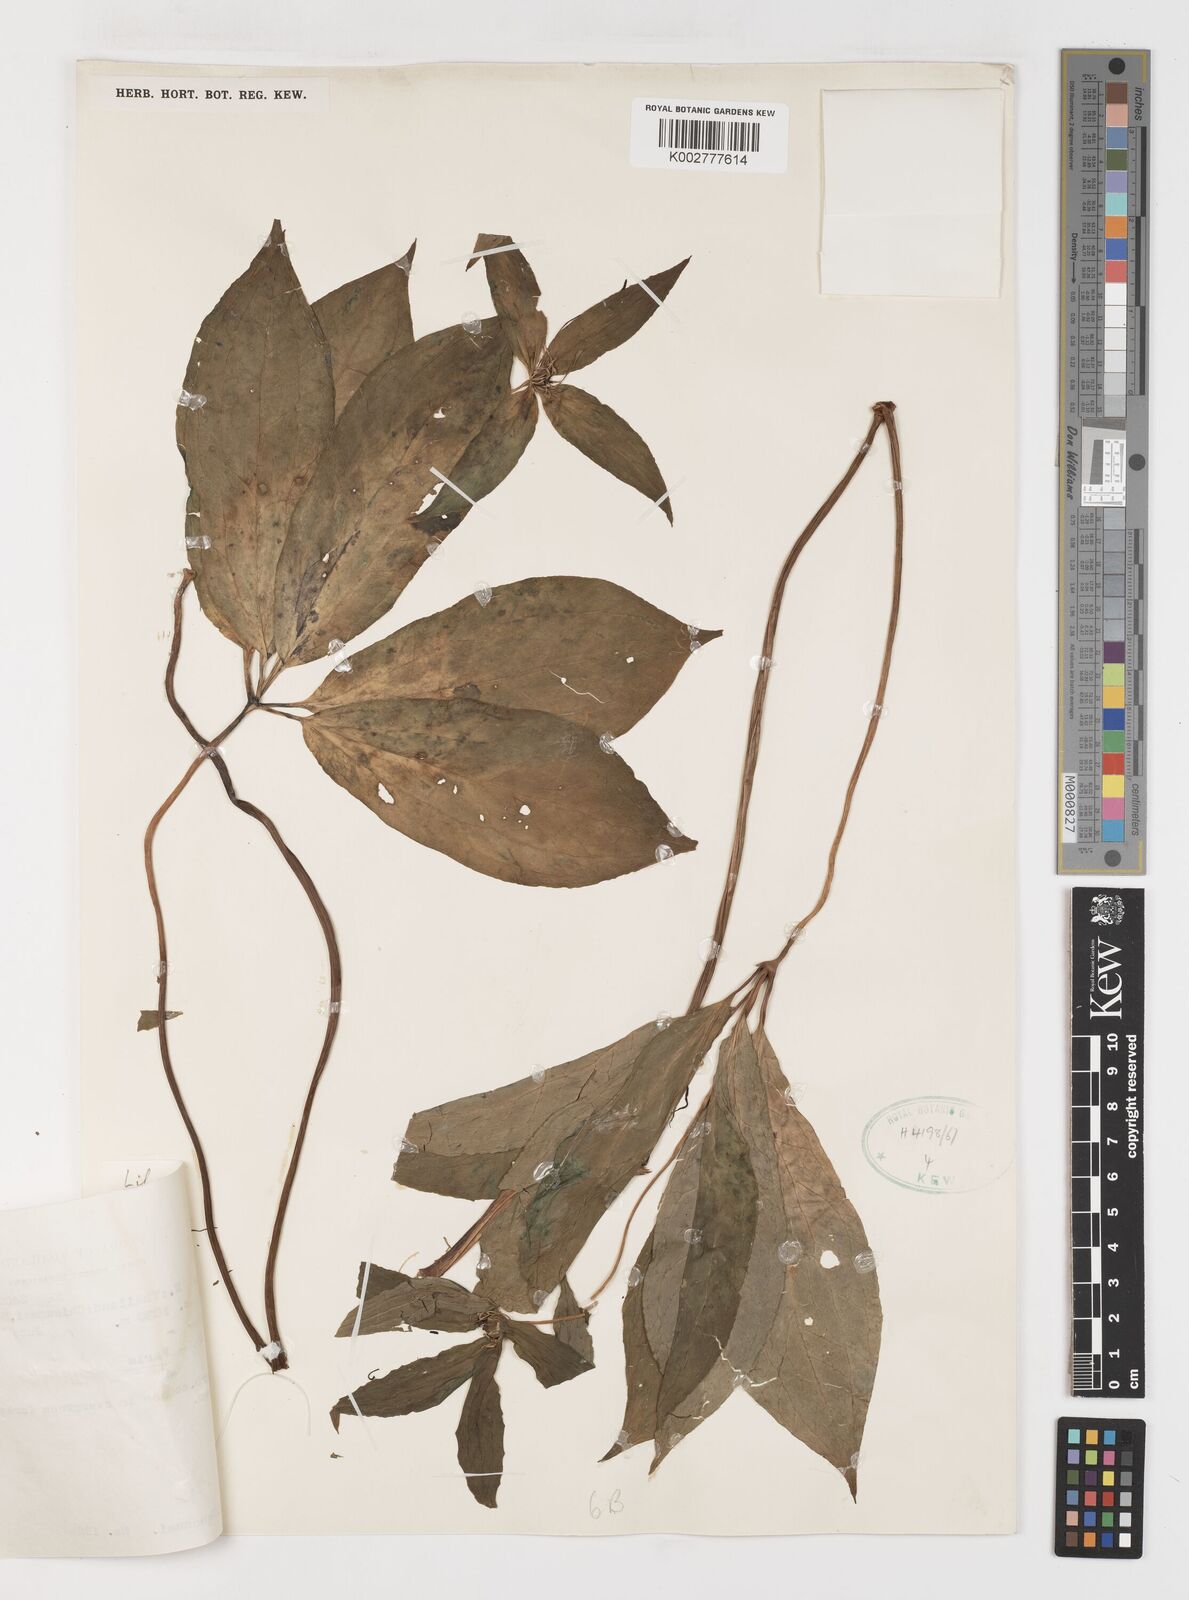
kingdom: Plantae
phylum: Tracheophyta
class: Liliopsida
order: Liliales
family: Melanthiaceae
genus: Paris
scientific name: Paris polyphylla
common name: Love apple
